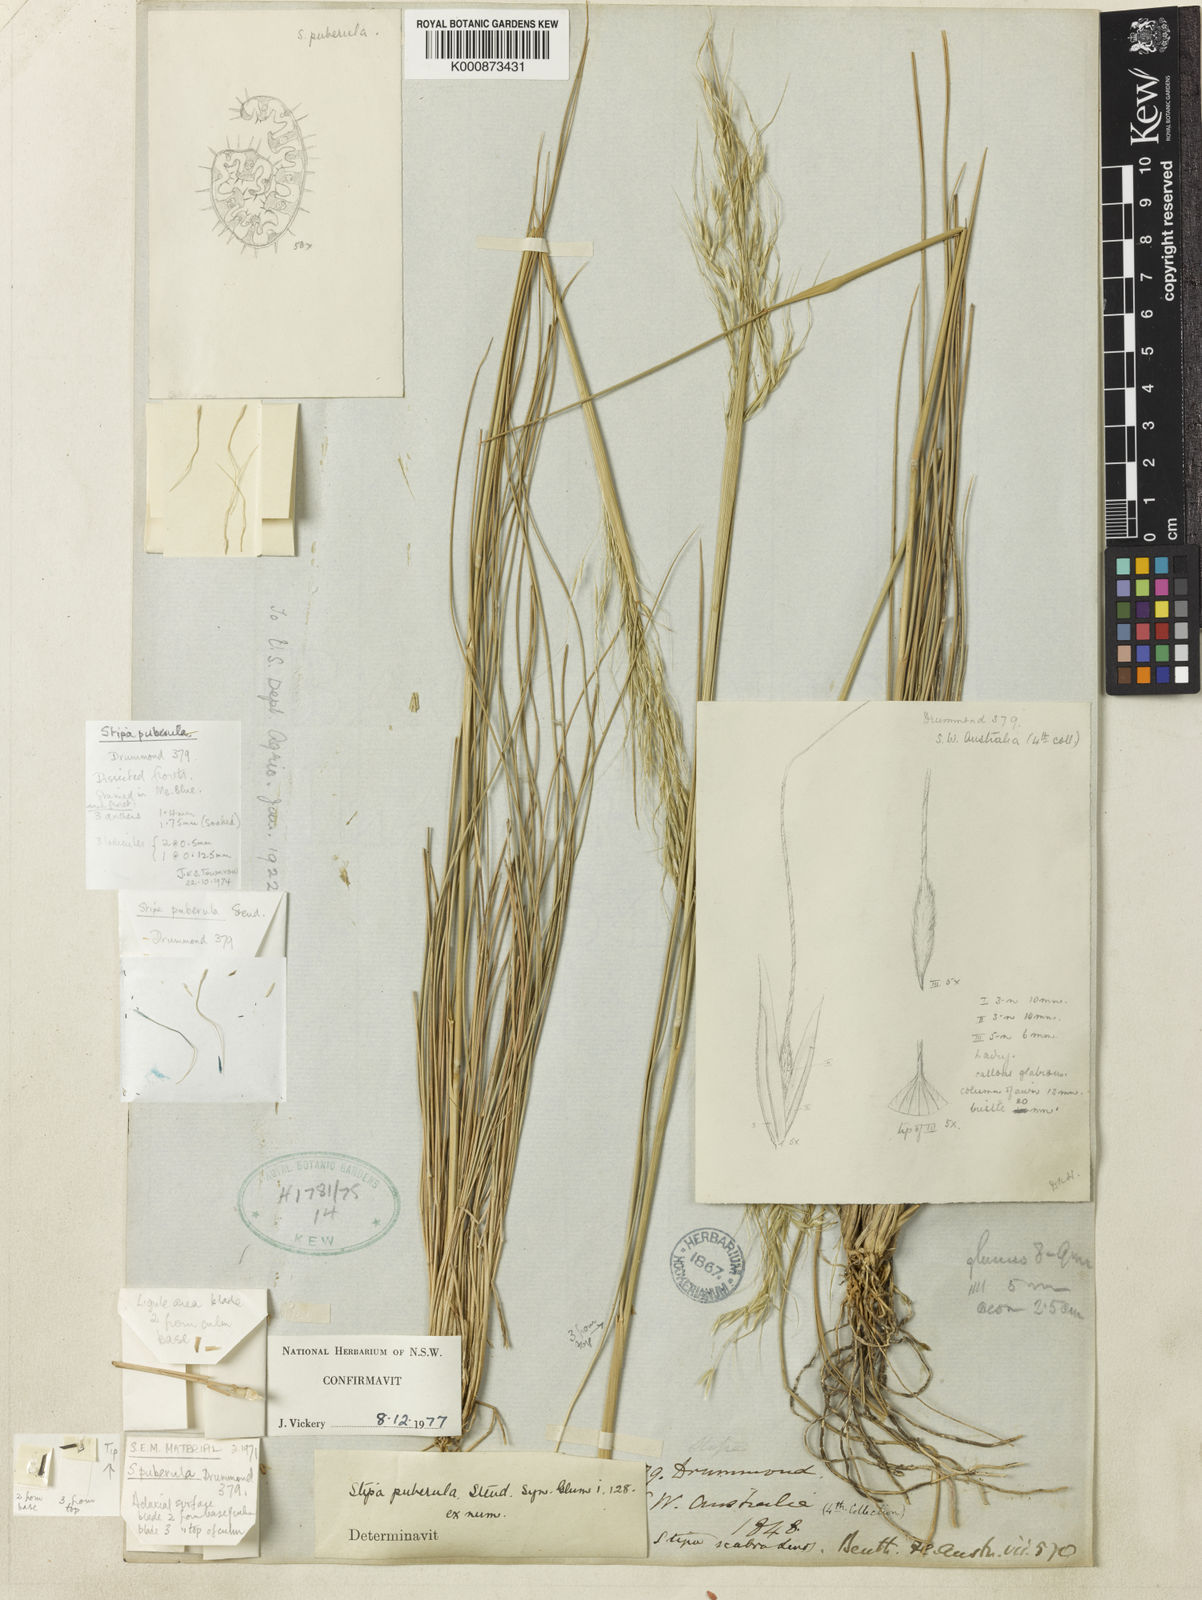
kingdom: Plantae
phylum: Tracheophyta
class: Liliopsida
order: Poales
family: Poaceae
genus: Austrostipa
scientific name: Austrostipa puberula
